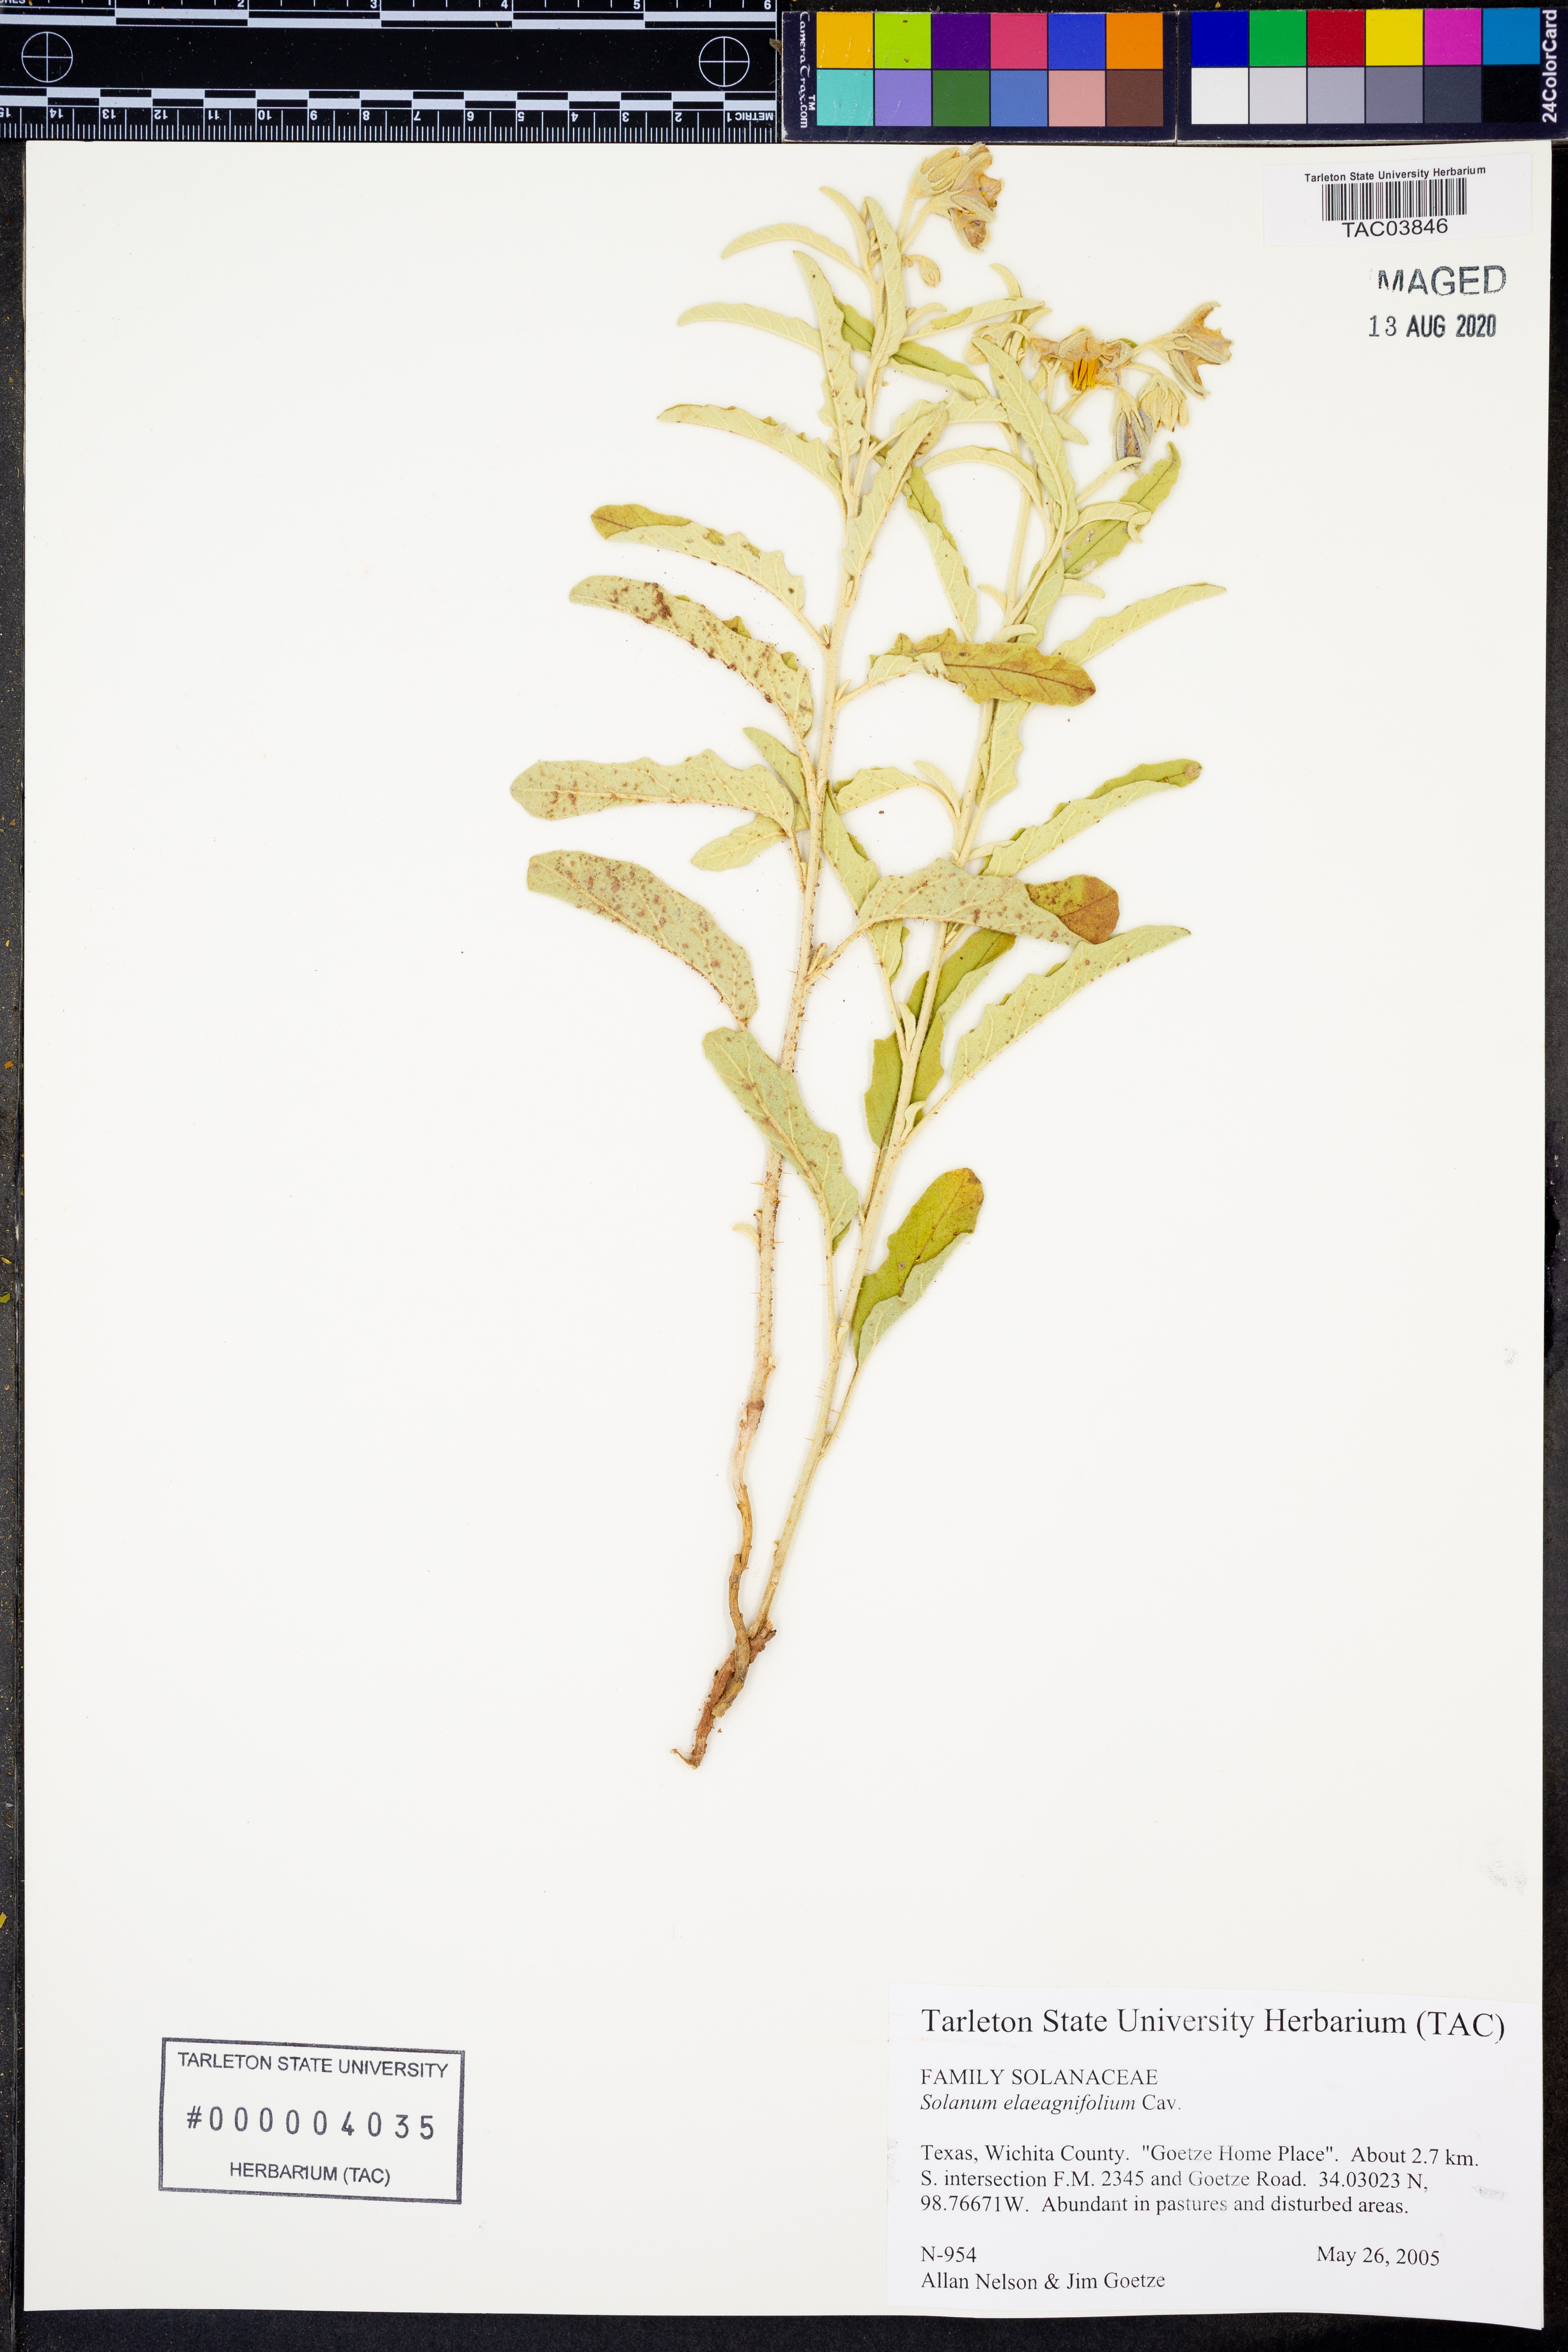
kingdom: Plantae
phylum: Tracheophyta
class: Magnoliopsida
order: Solanales
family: Solanaceae
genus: Solanum
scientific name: Solanum elaeagnifolium
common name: Silverleaf nightshade
